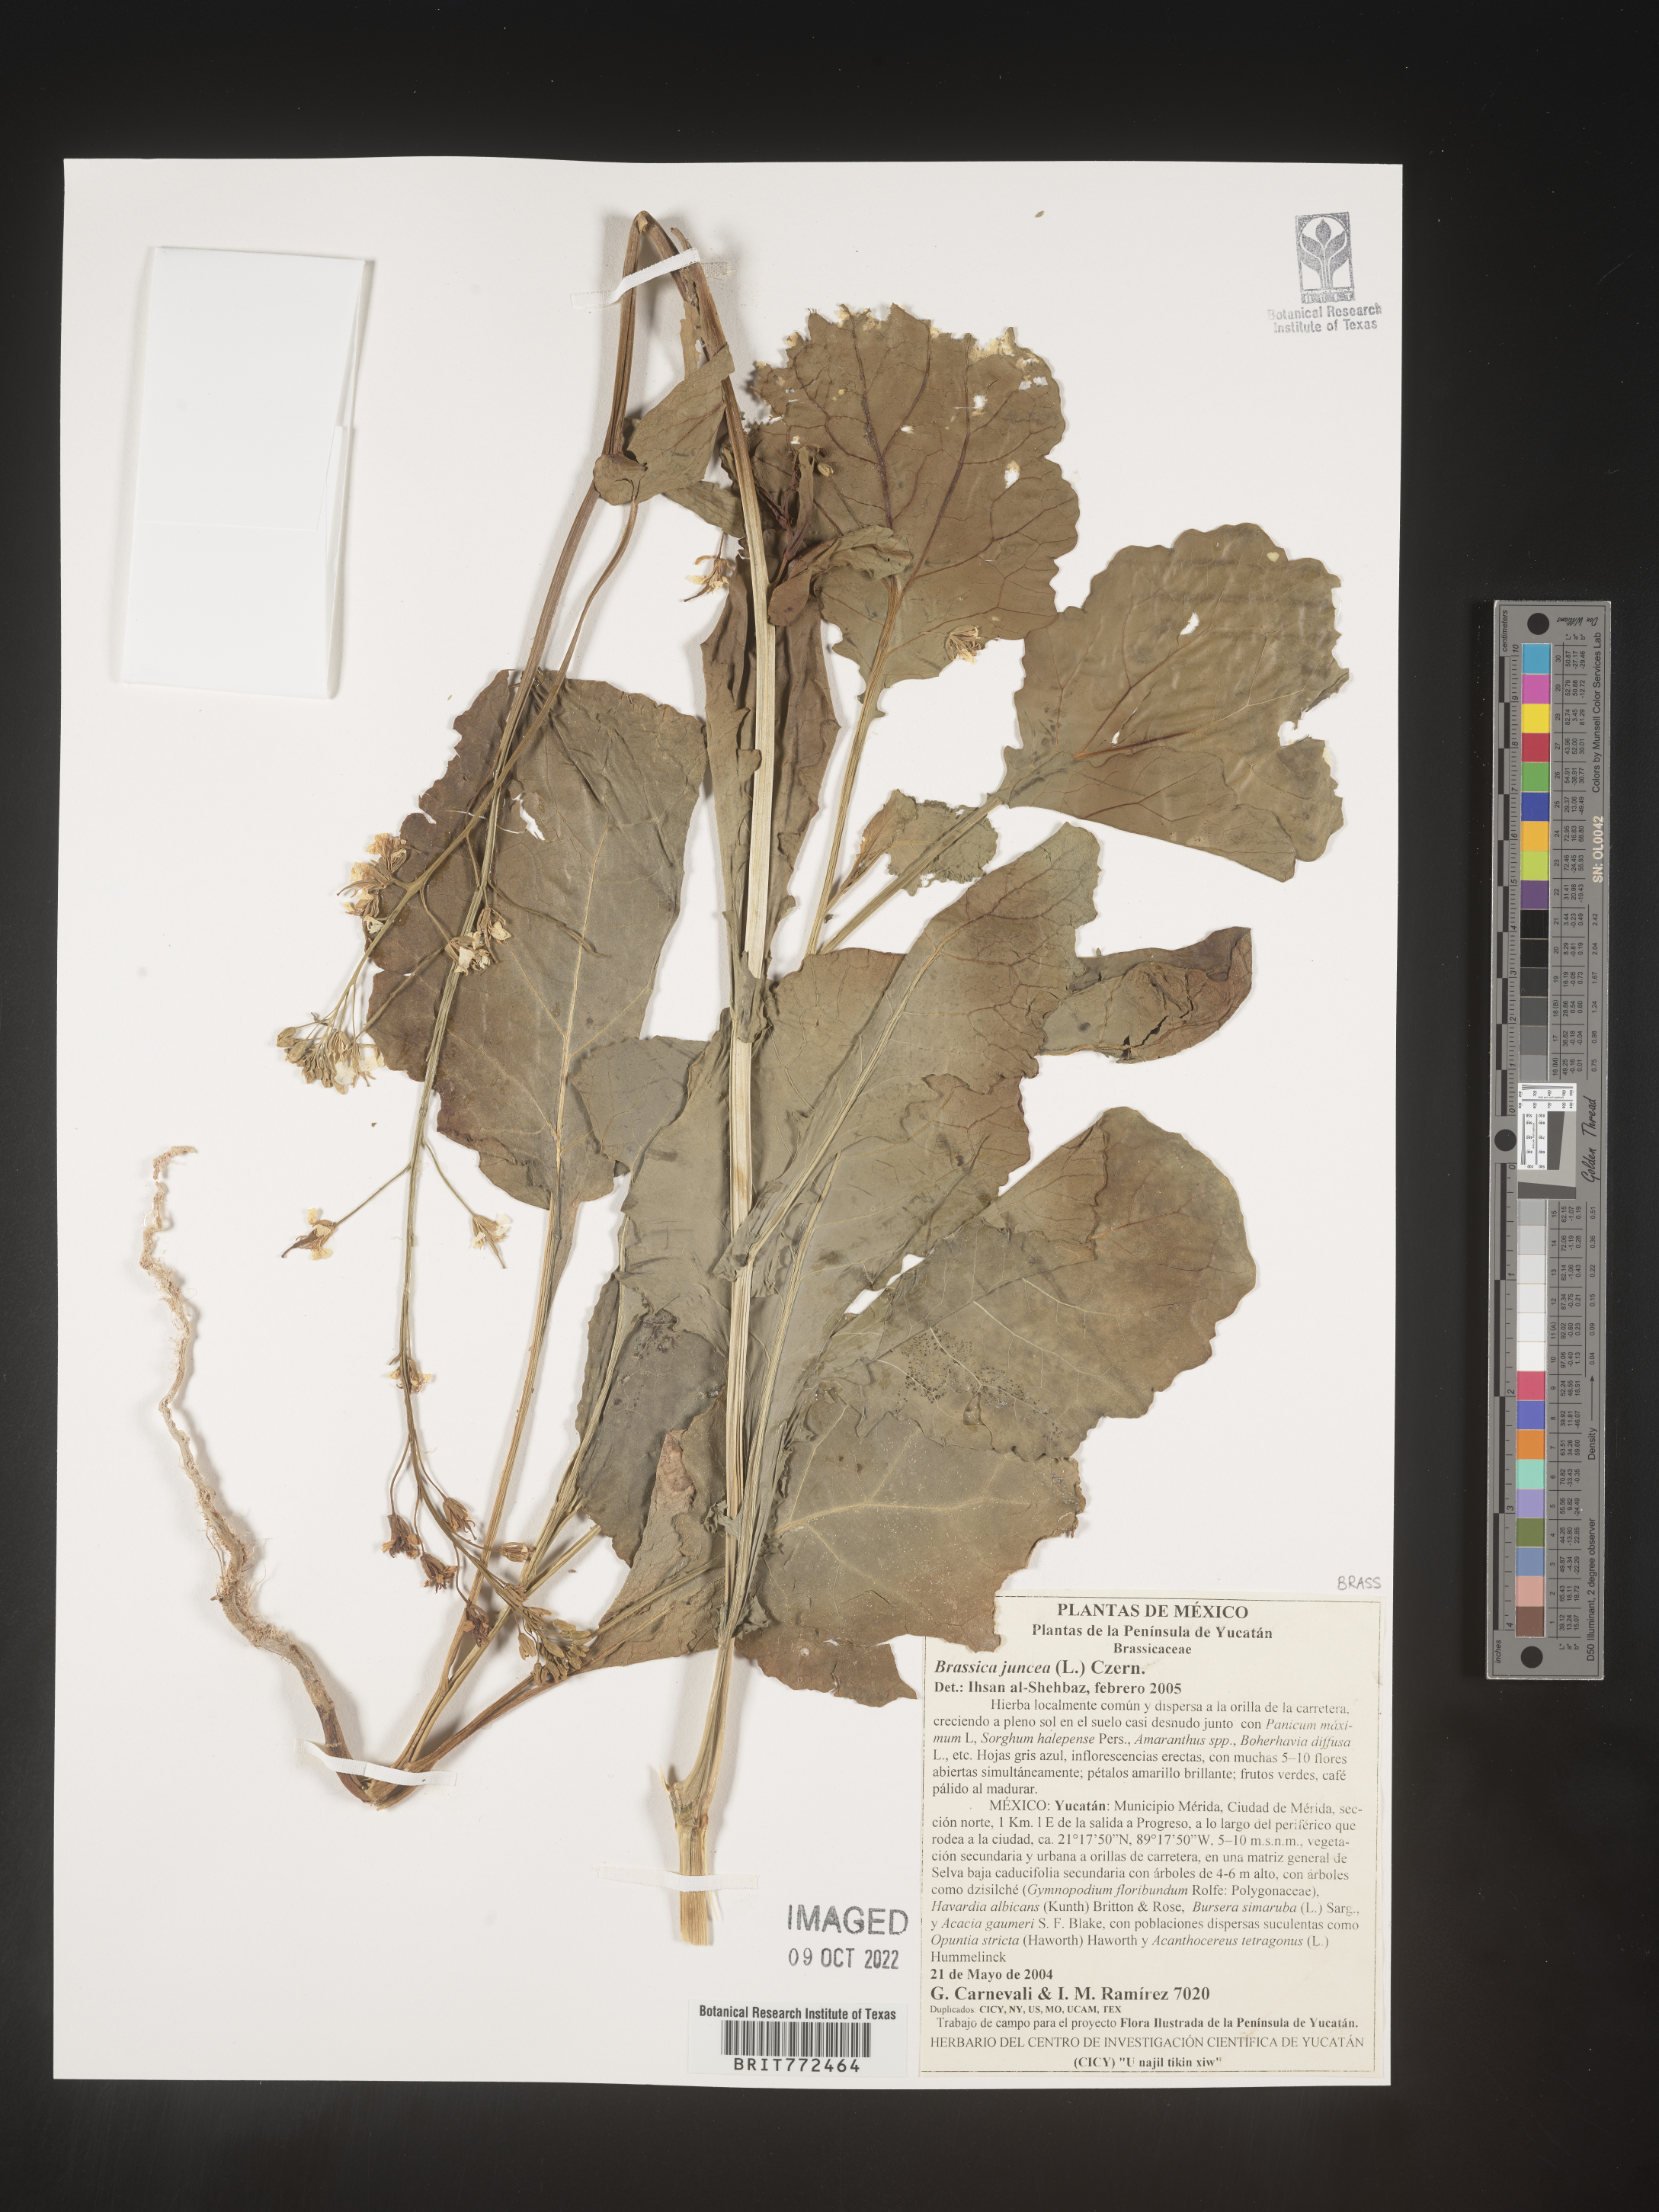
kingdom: Plantae
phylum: Tracheophyta
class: Magnoliopsida
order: Brassicales
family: Brassicaceae
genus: Brassica
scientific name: Brassica
